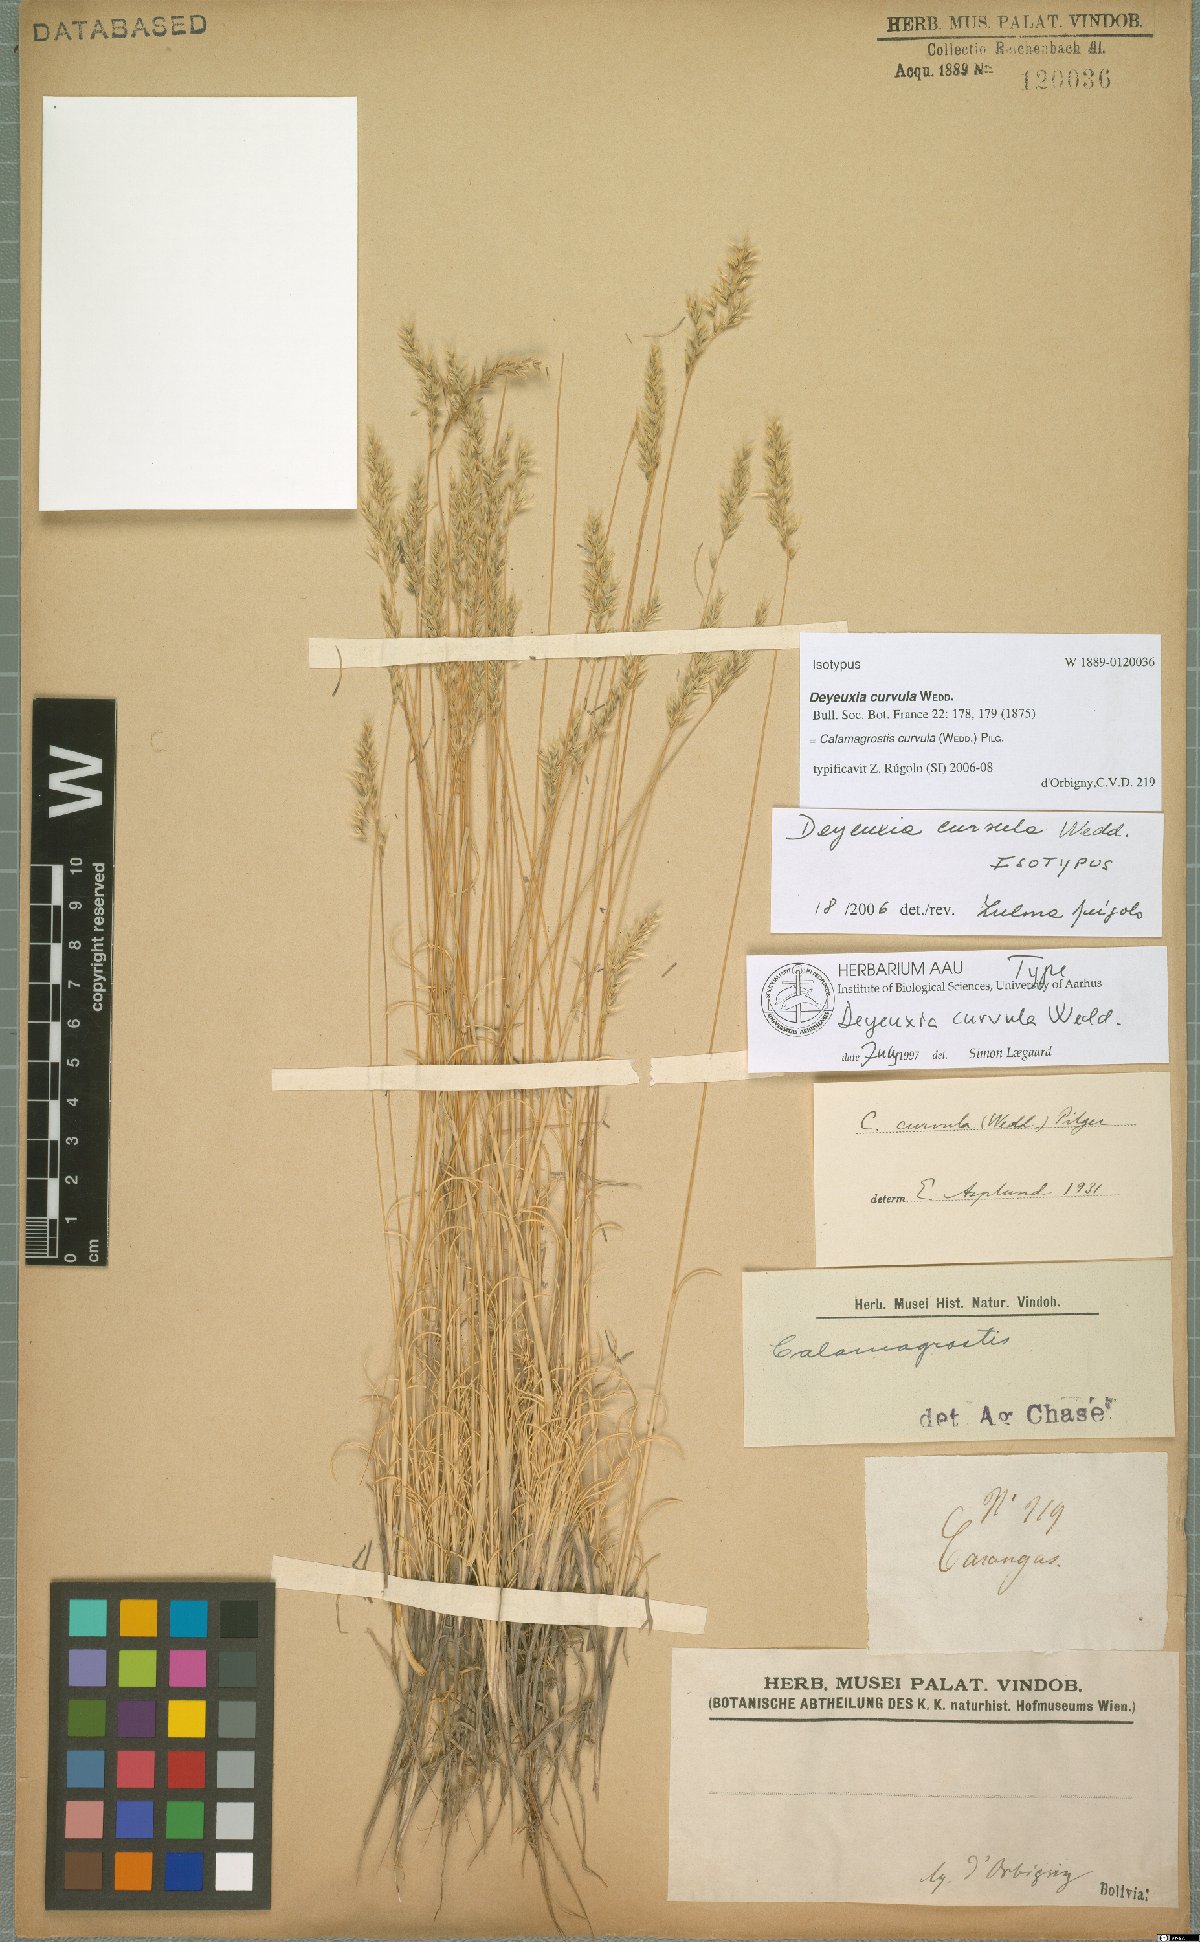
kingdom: Plantae
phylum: Tracheophyta
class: Liliopsida
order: Poales
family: Poaceae
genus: Cinnagrostis
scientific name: Cinnagrostis curvula
